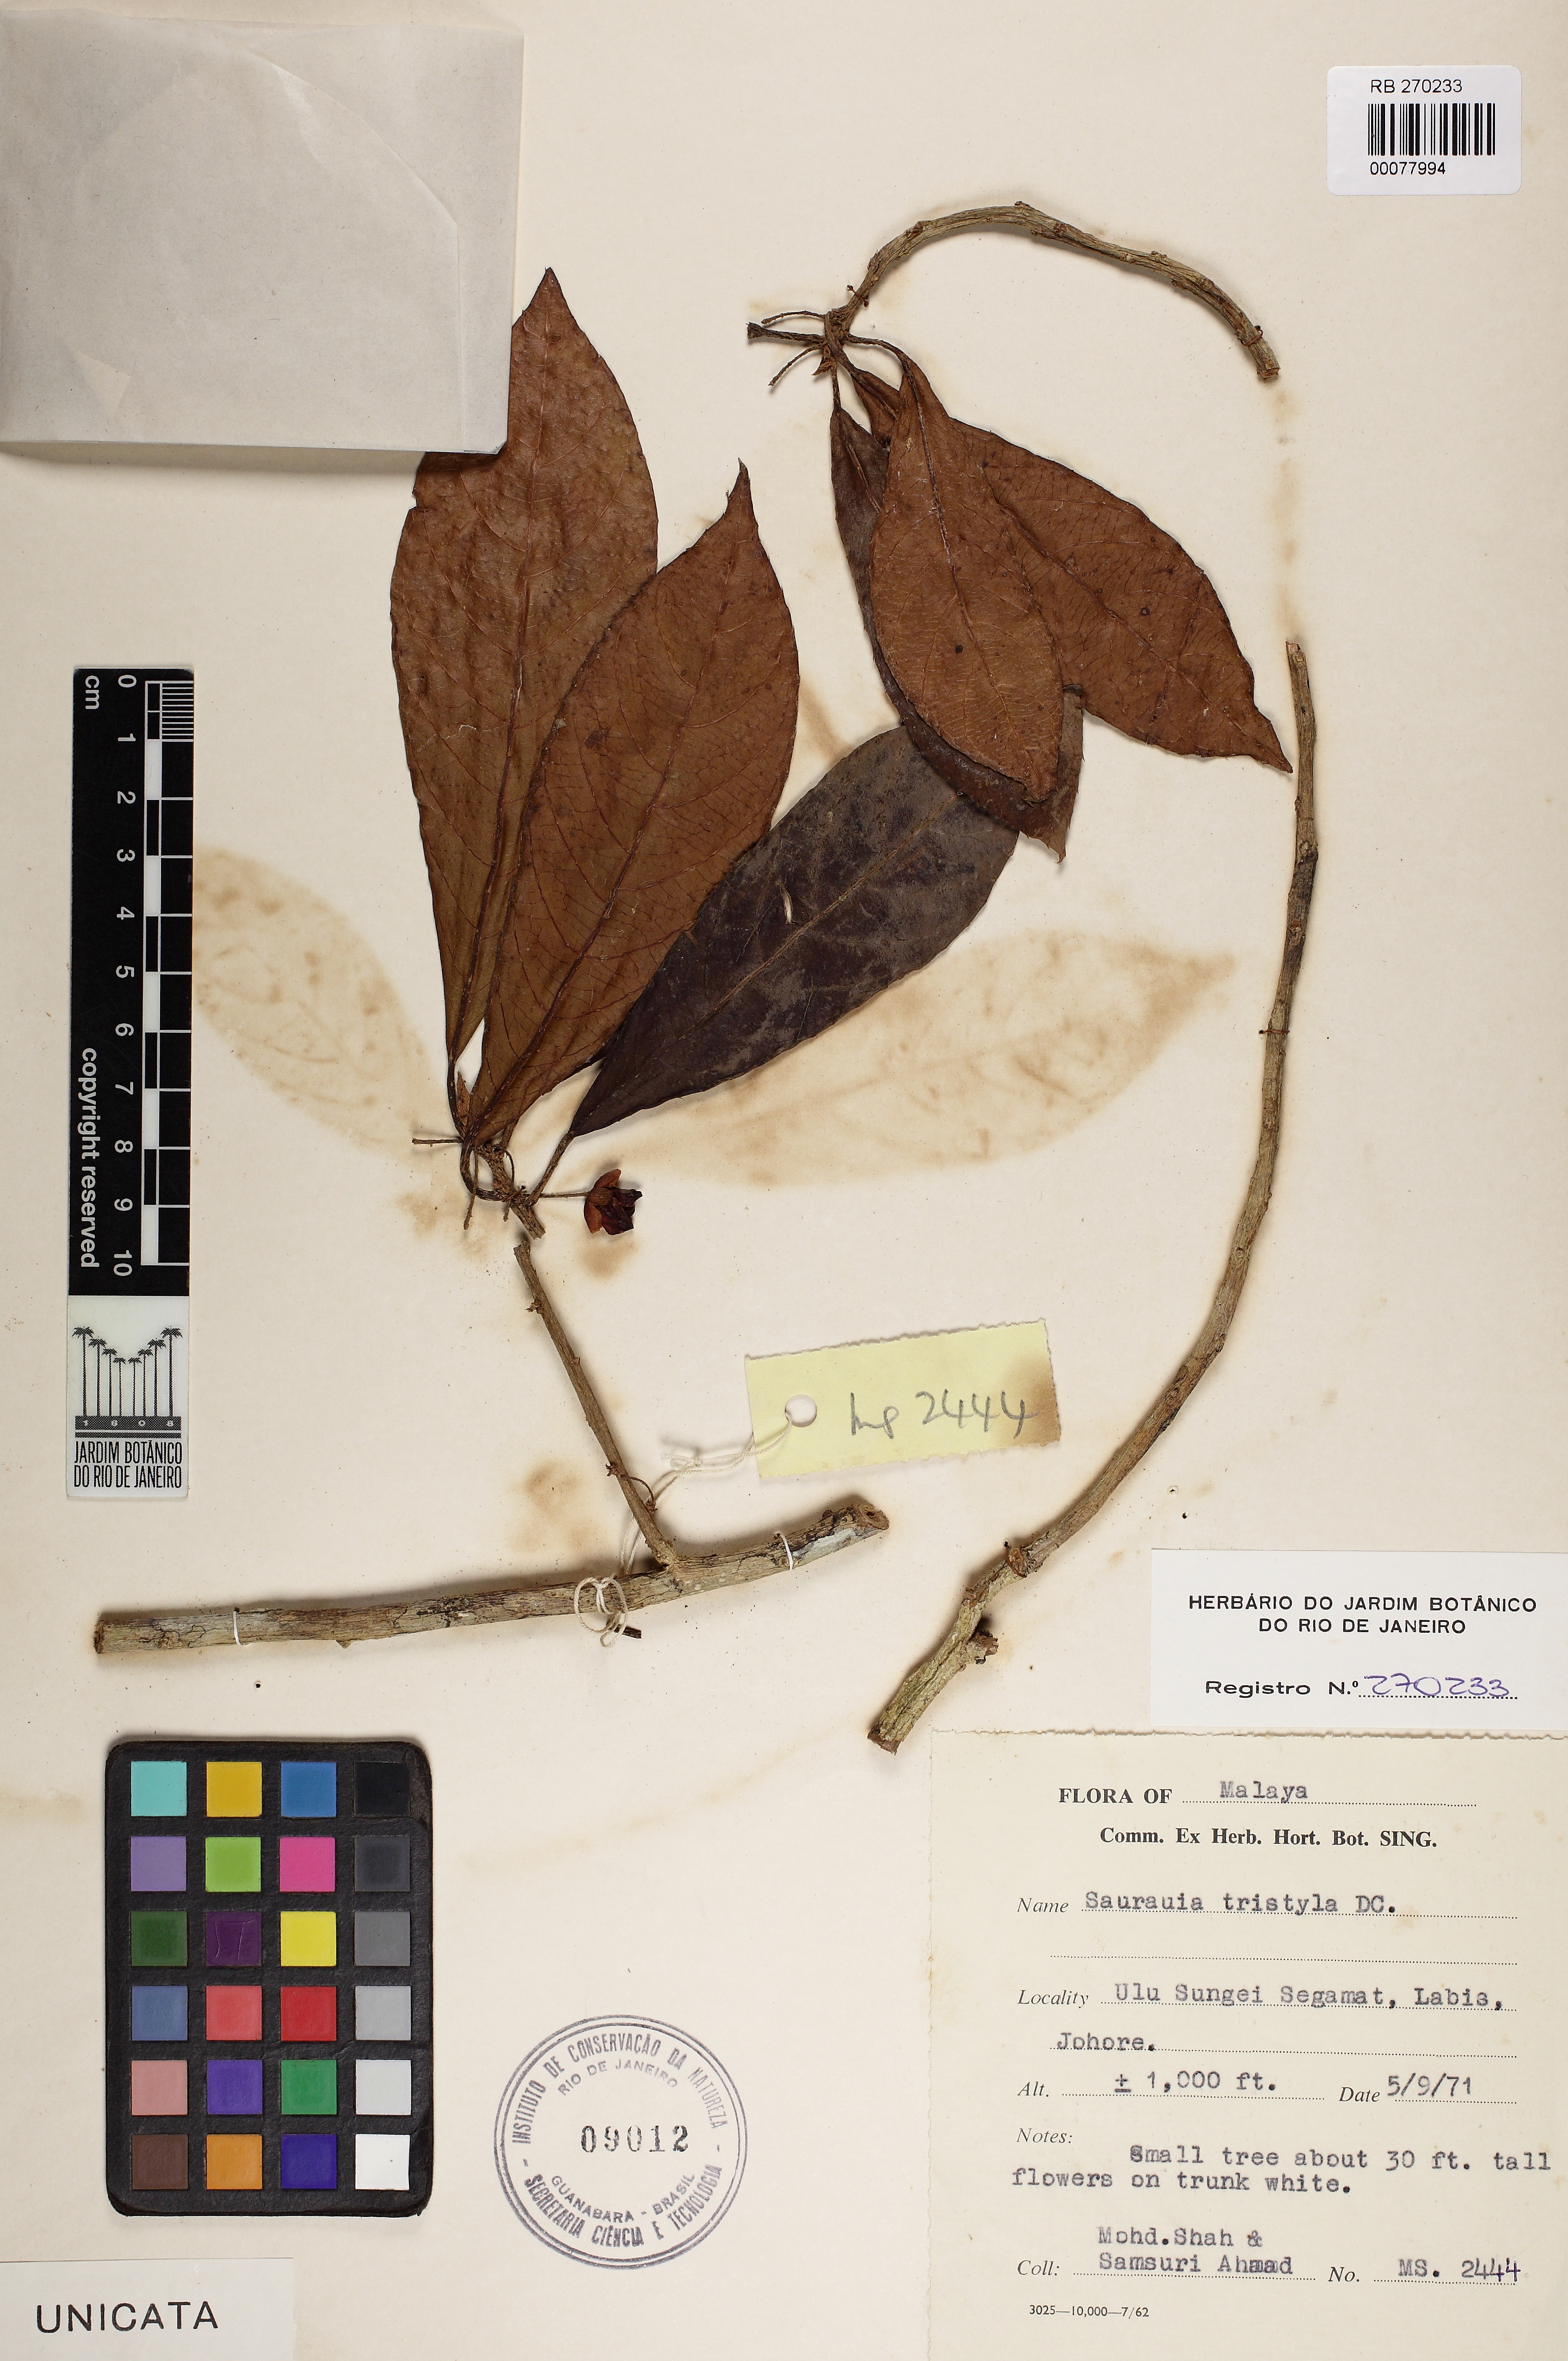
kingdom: Plantae
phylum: Tracheophyta
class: Magnoliopsida
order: Ericales
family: Actinidiaceae
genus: Saurauia
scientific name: Saurauia tristyla
